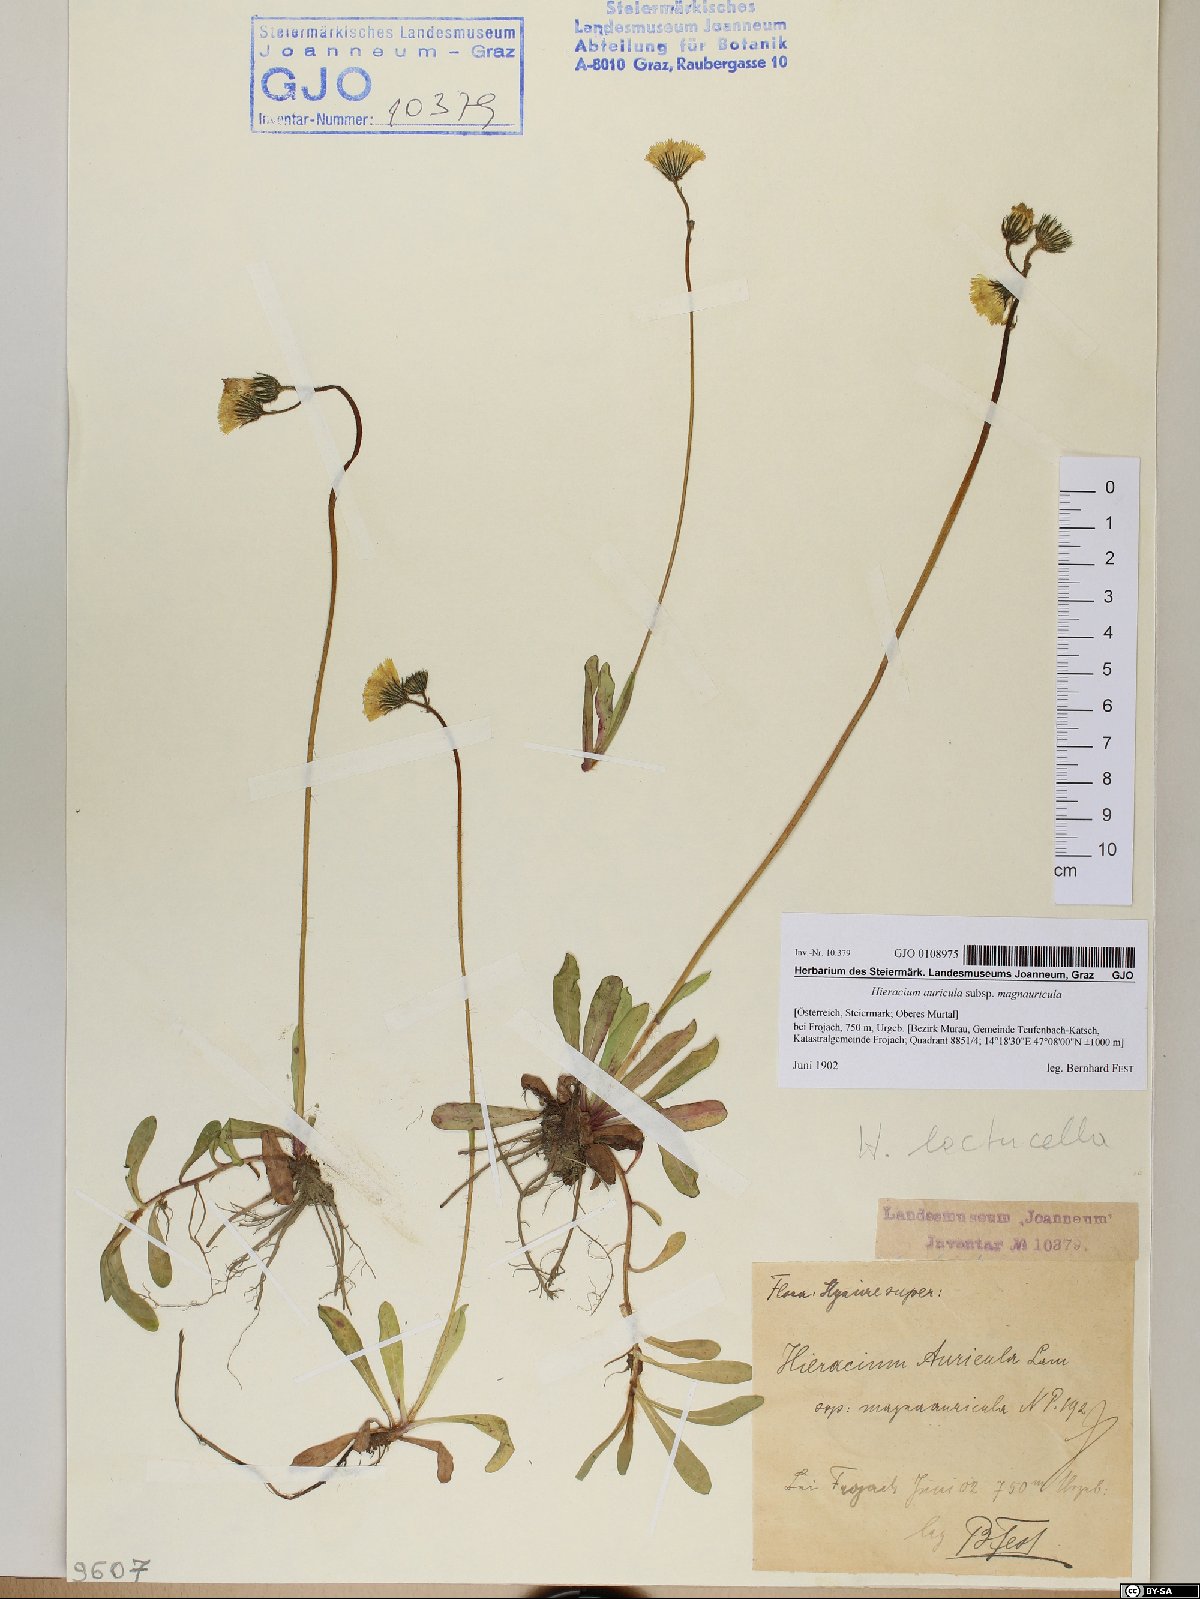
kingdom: Plantae
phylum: Tracheophyta
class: Magnoliopsida
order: Asterales
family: Asteraceae
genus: Pilosella
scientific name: Pilosella lactucella
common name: Glaucous fox-and-cubs
